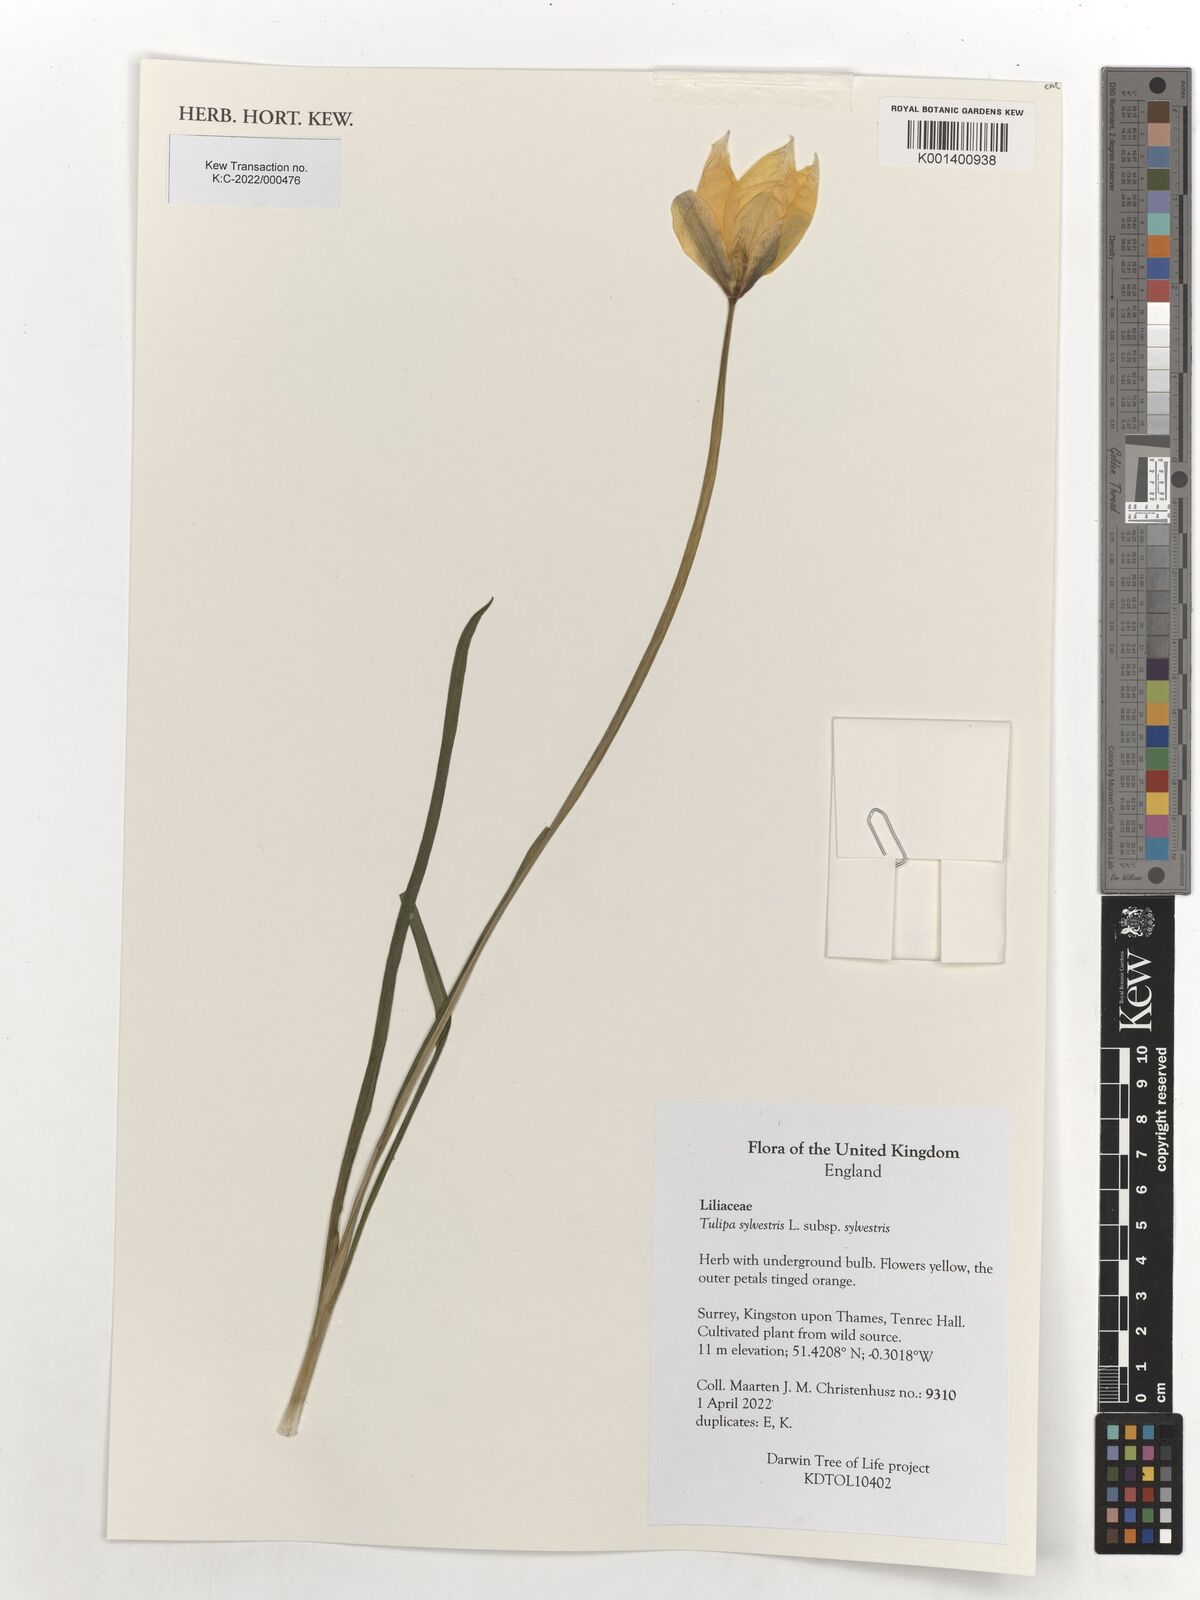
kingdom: Plantae
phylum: Tracheophyta
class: Liliopsida
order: Liliales
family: Liliaceae
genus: Tulipa
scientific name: Tulipa sylvestris
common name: Wild tulip
